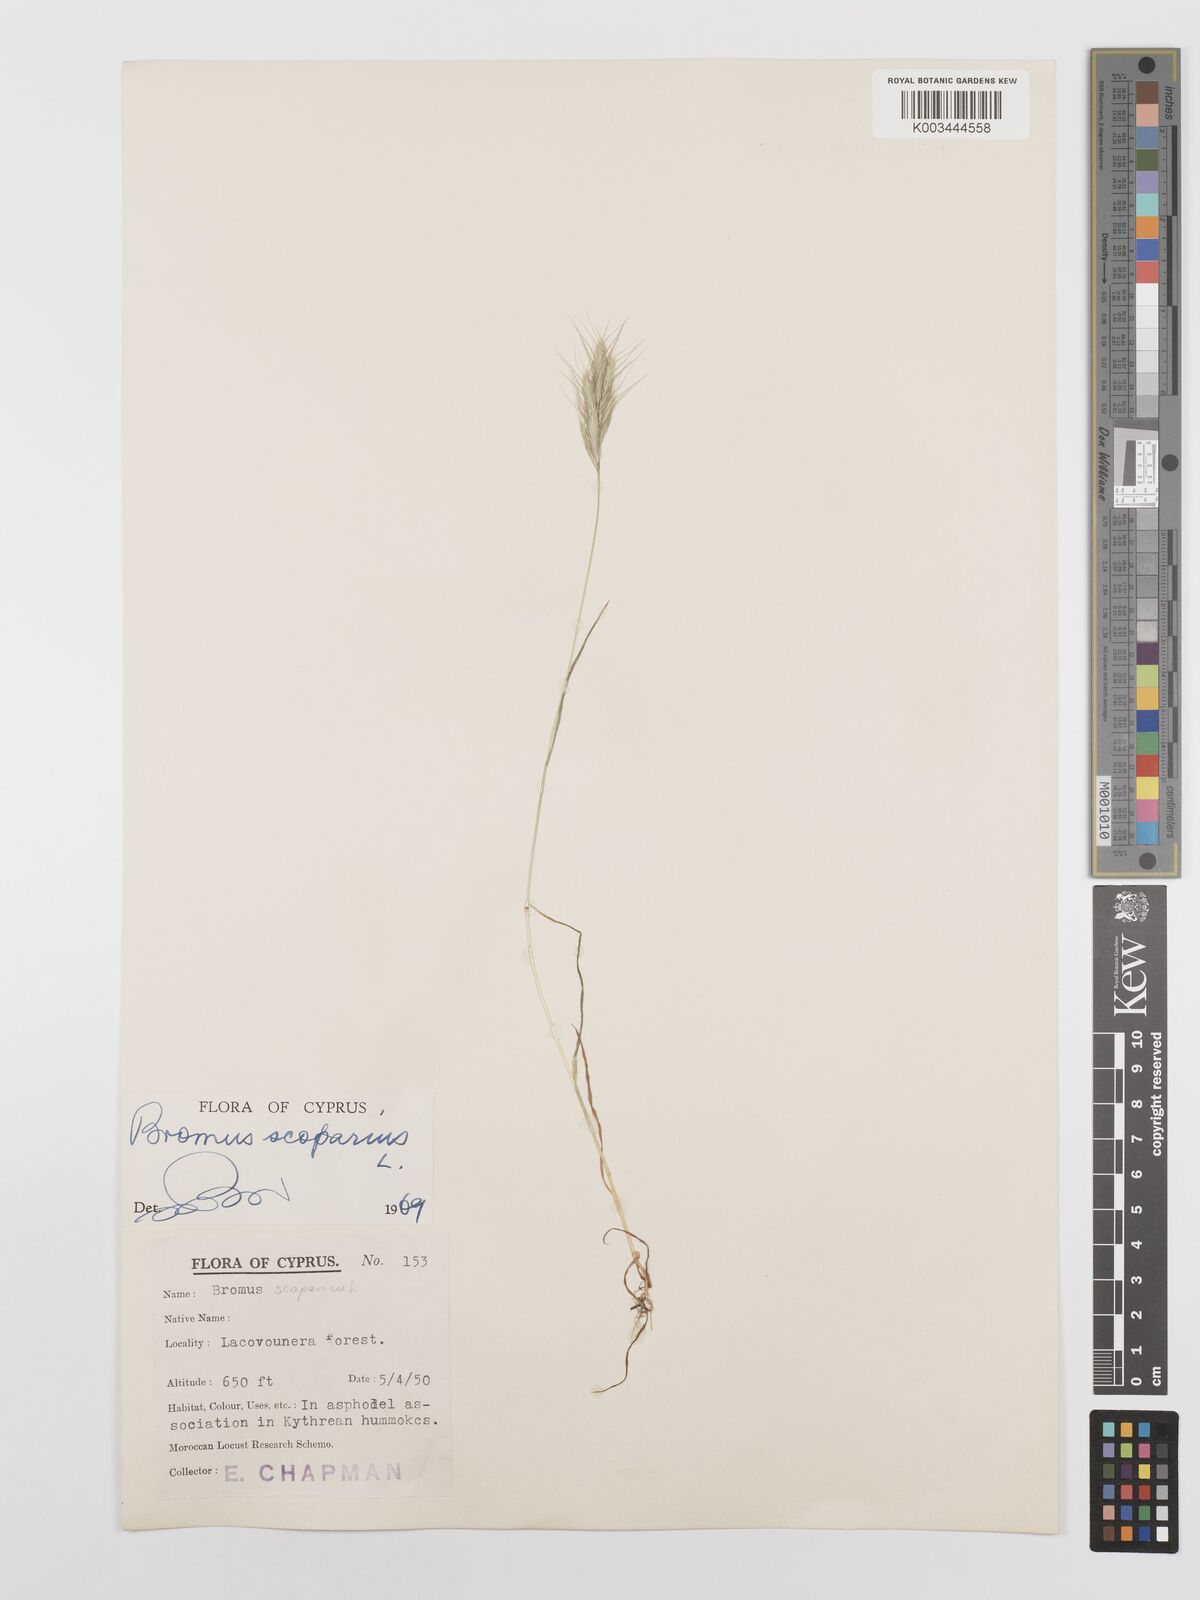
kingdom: Plantae
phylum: Tracheophyta
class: Liliopsida
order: Poales
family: Poaceae
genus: Bromus
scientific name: Bromus scoparius
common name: Broom brome
